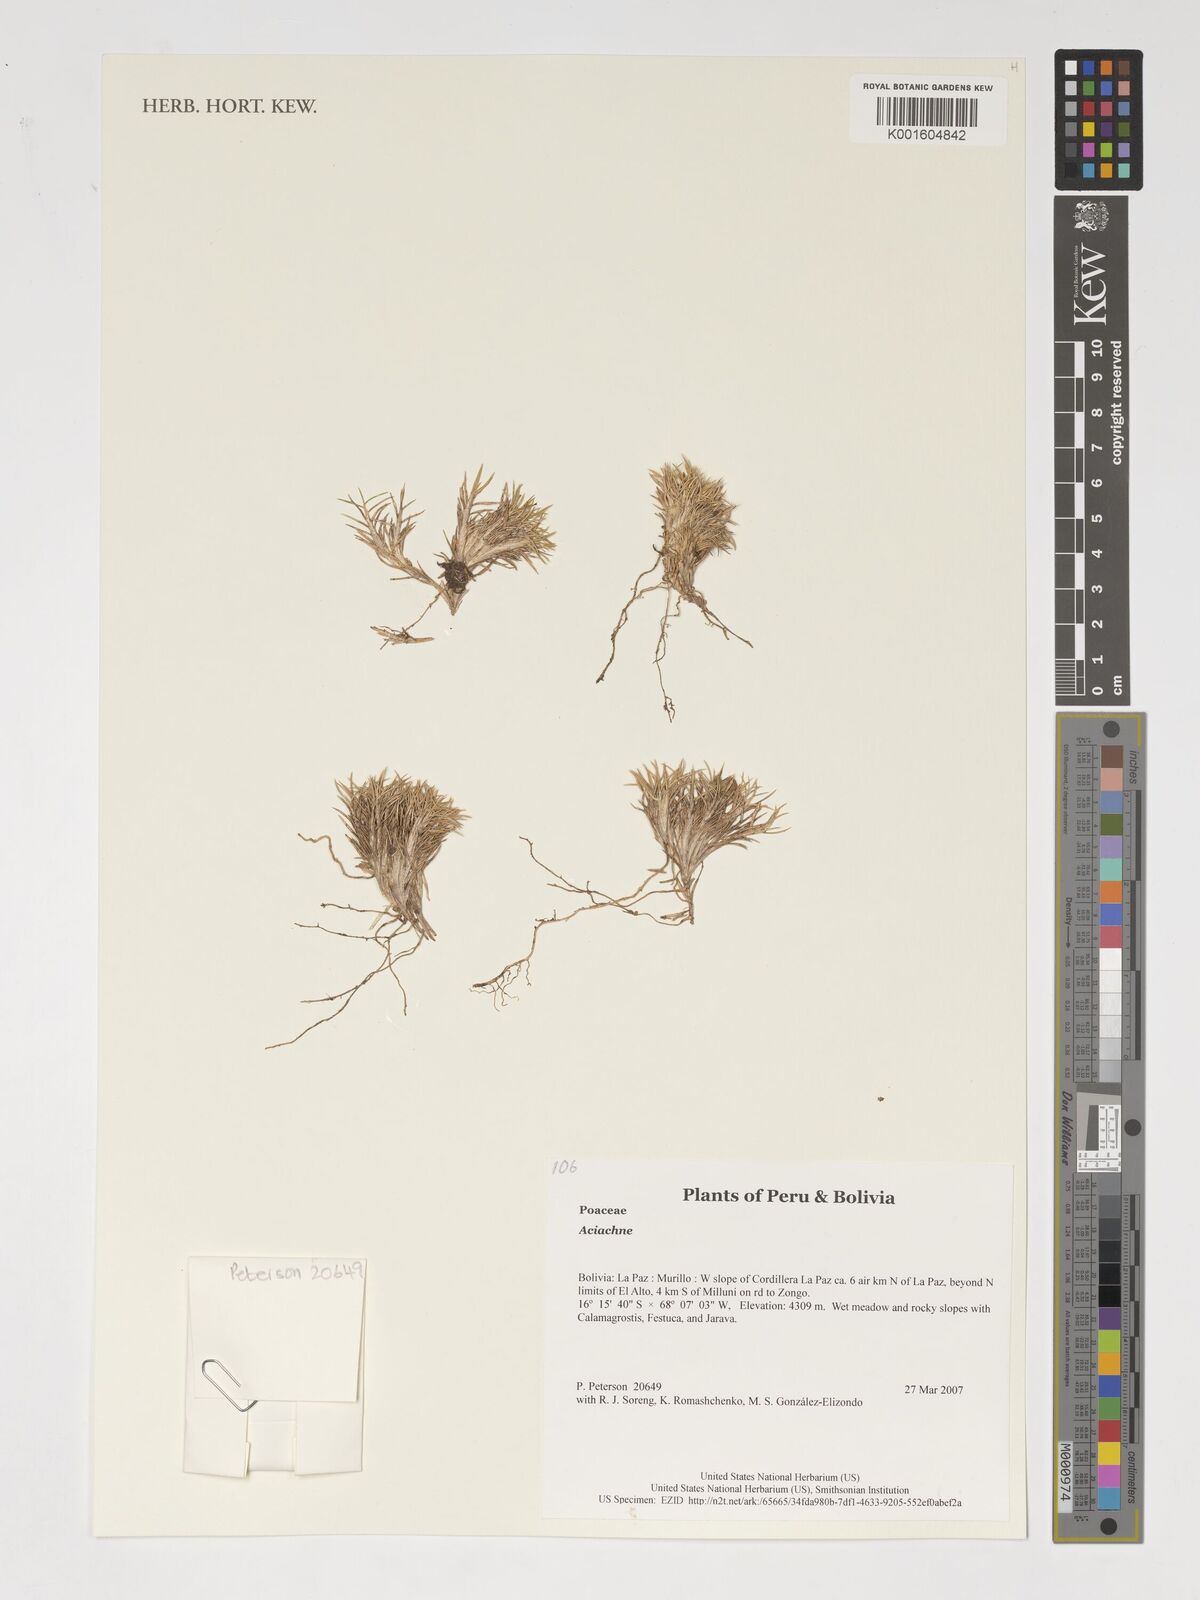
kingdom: Plantae
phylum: Tracheophyta
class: Liliopsida
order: Poales
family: Poaceae
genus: Aciachne
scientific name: Aciachne
